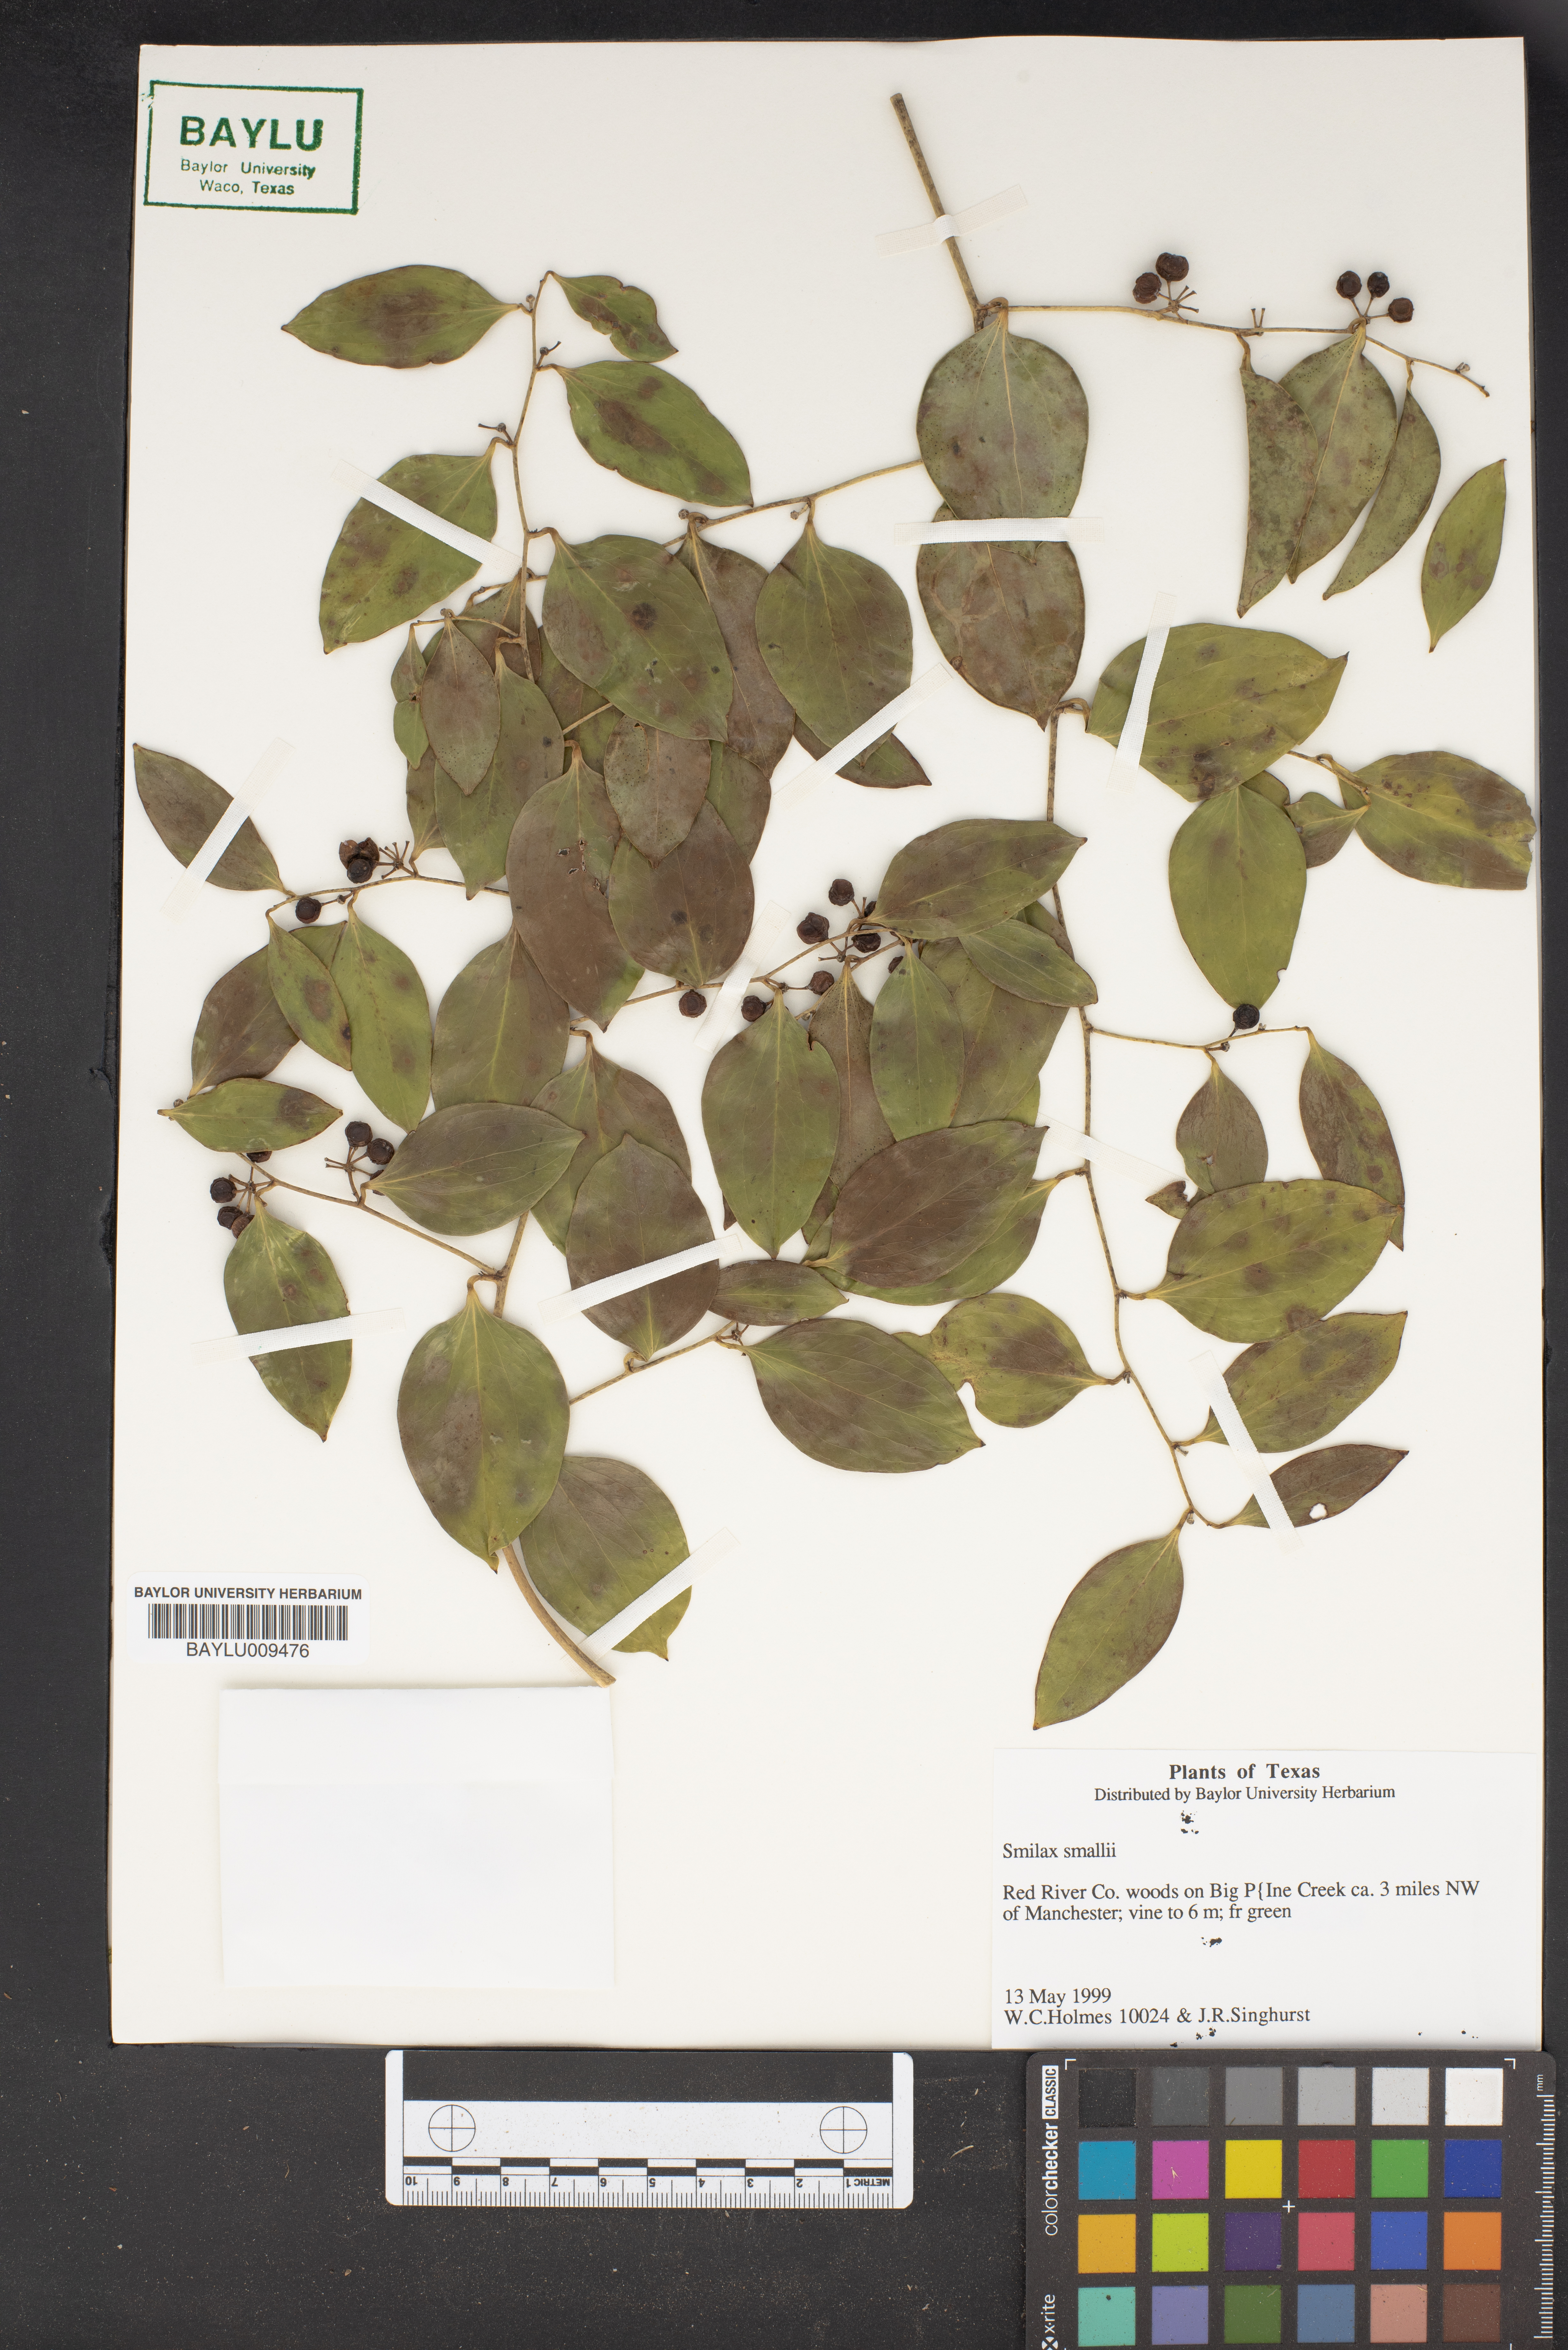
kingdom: Plantae
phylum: Tracheophyta
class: Liliopsida
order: Liliales
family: Smilacaceae
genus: Smilax
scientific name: Smilax maritima
